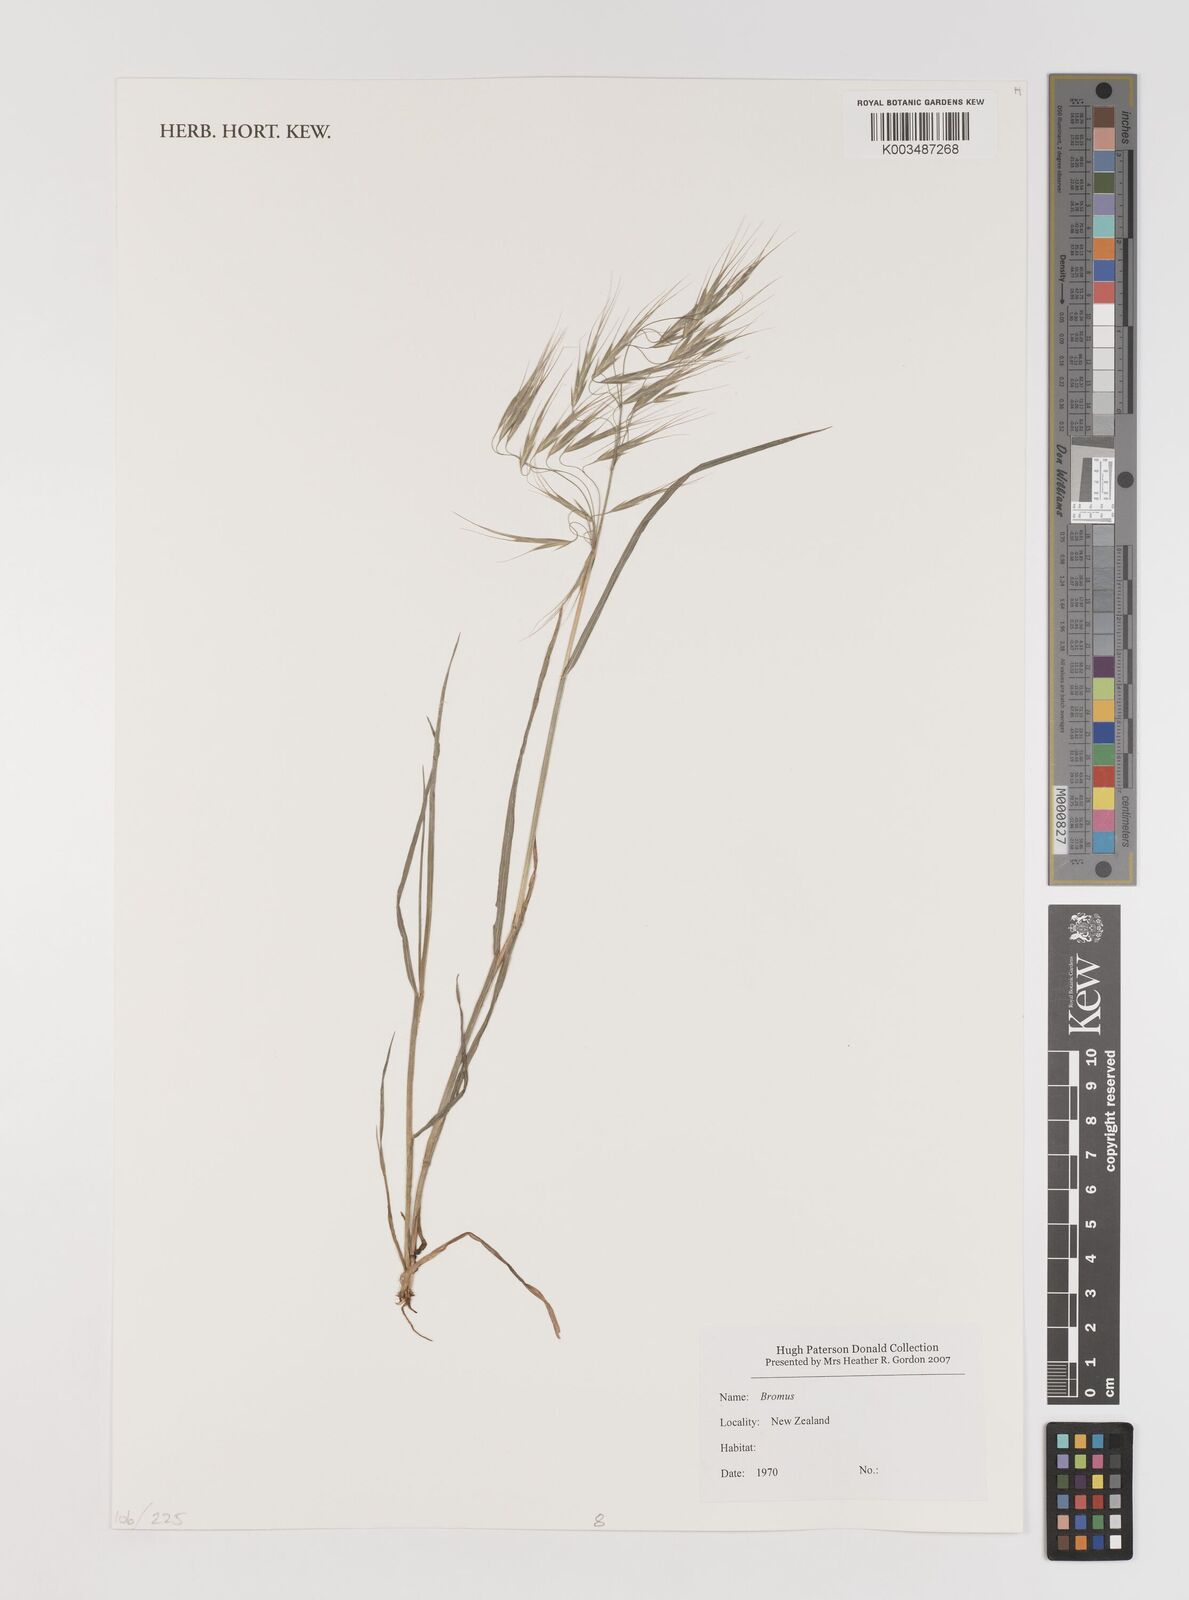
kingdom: Plantae
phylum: Tracheophyta
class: Liliopsida
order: Poales
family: Poaceae
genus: Bromus
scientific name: Bromus pectinatus
